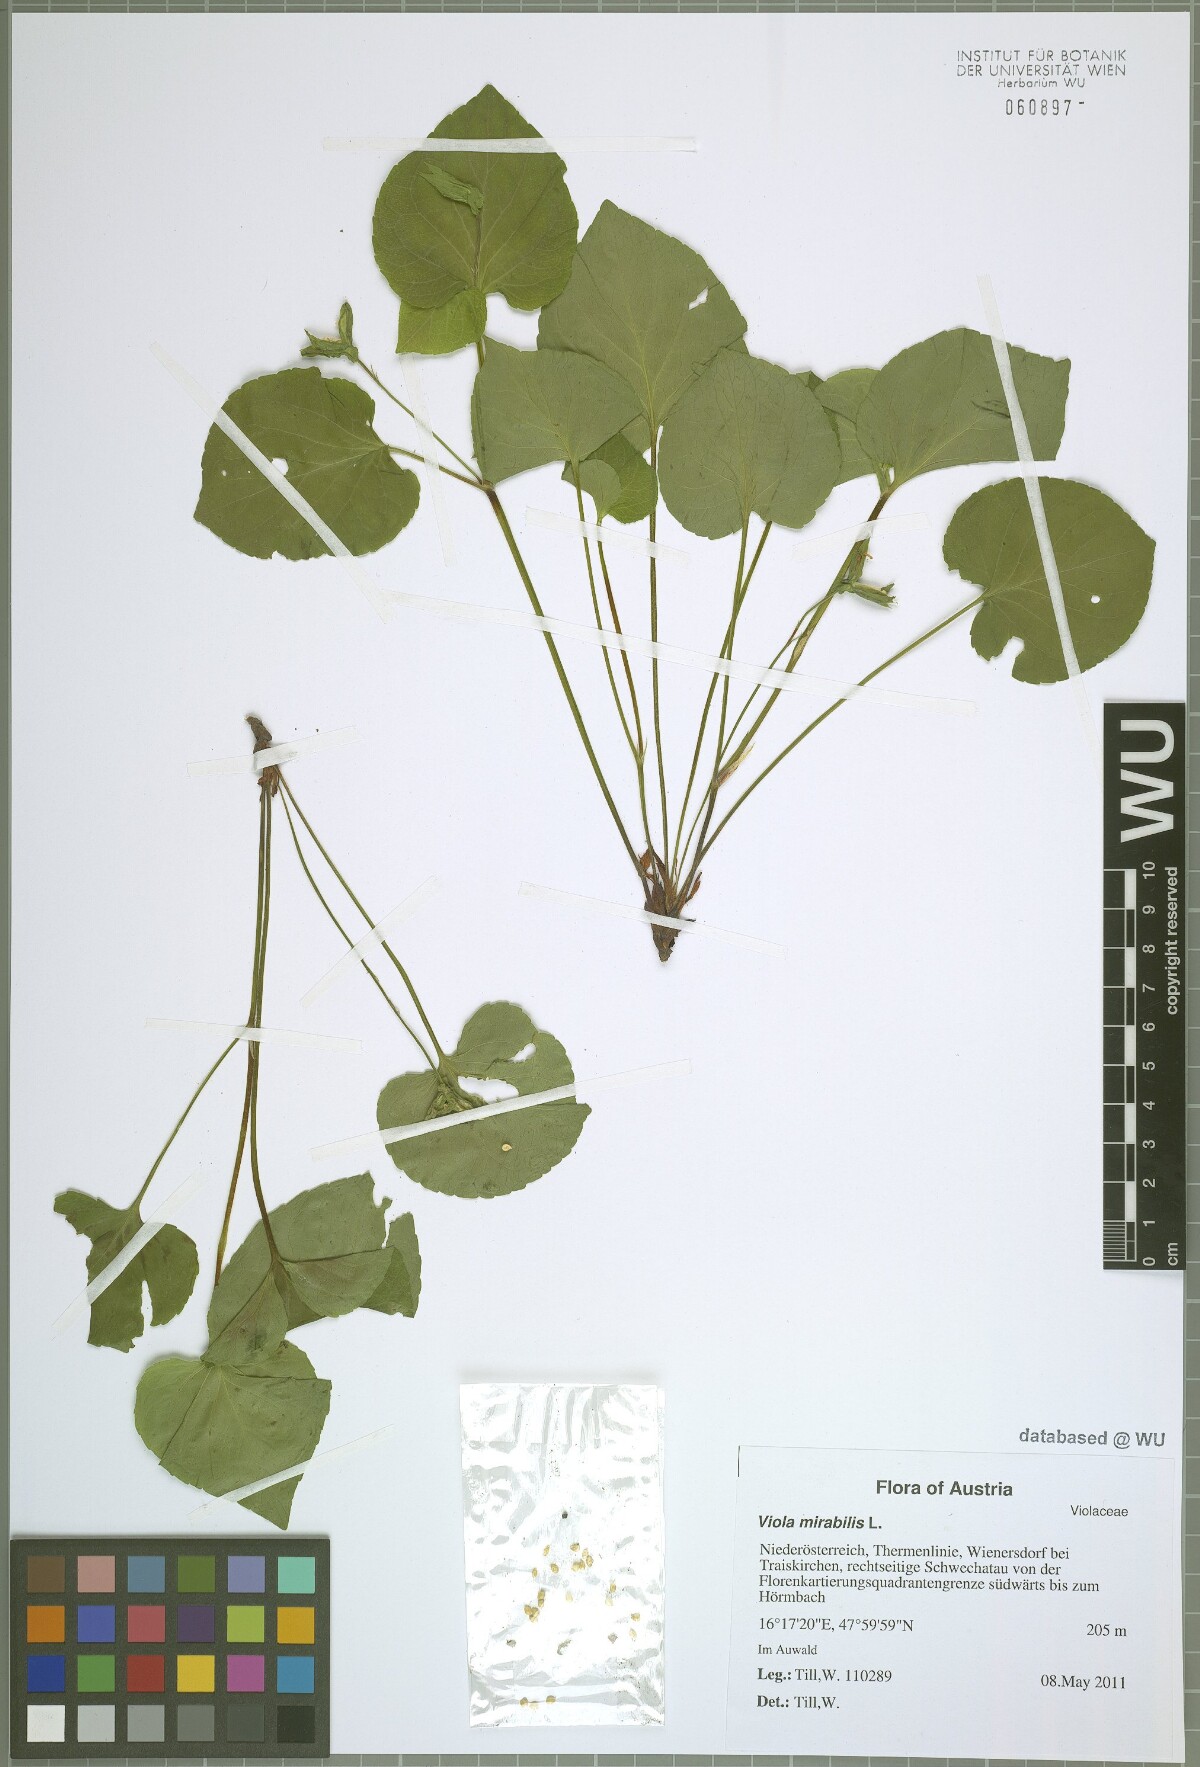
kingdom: Plantae
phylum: Tracheophyta
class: Magnoliopsida
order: Malpighiales
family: Violaceae
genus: Viola
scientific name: Viola mirabilis
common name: Wonder violet
